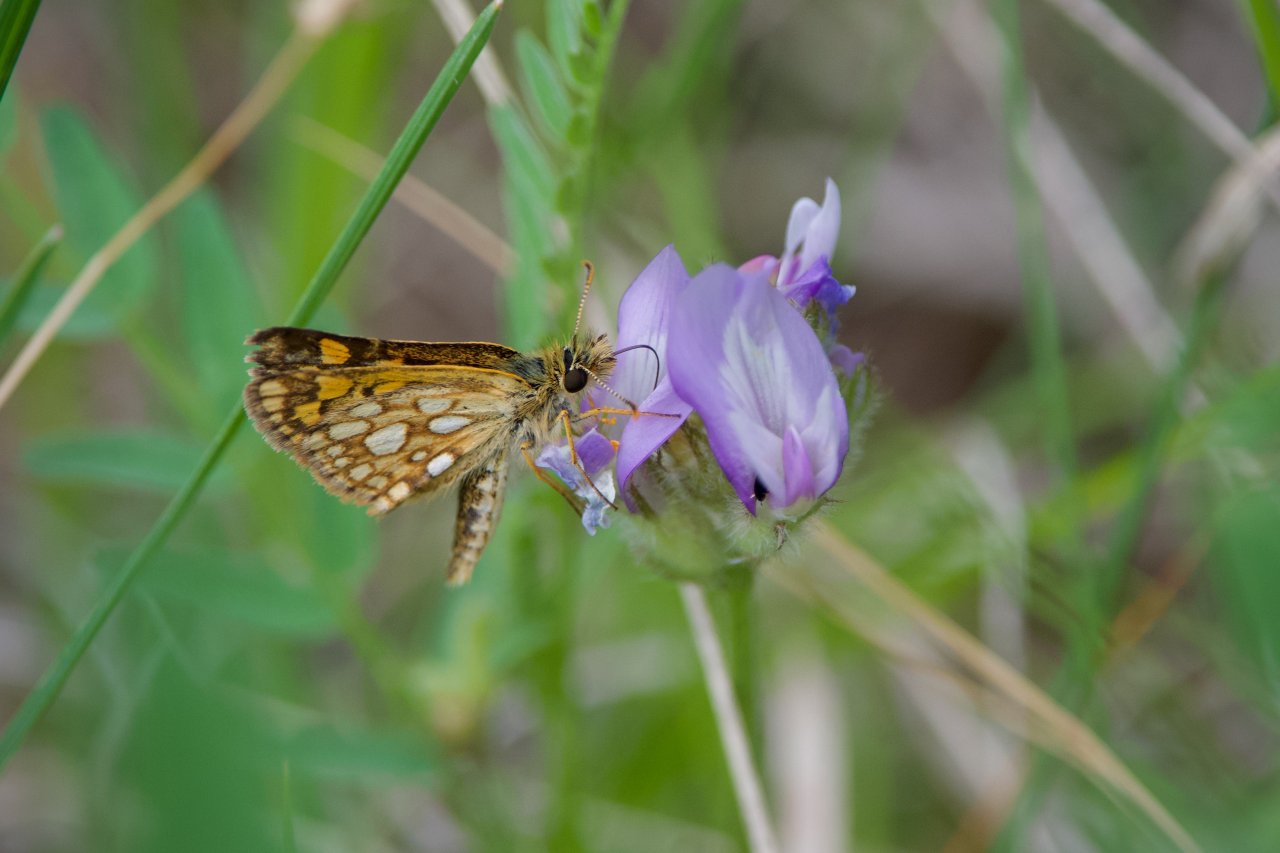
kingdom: Animalia
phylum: Arthropoda
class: Insecta
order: Lepidoptera
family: Hesperiidae
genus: Carterocephalus
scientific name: Carterocephalus palaemon
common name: Chequered Skipper
